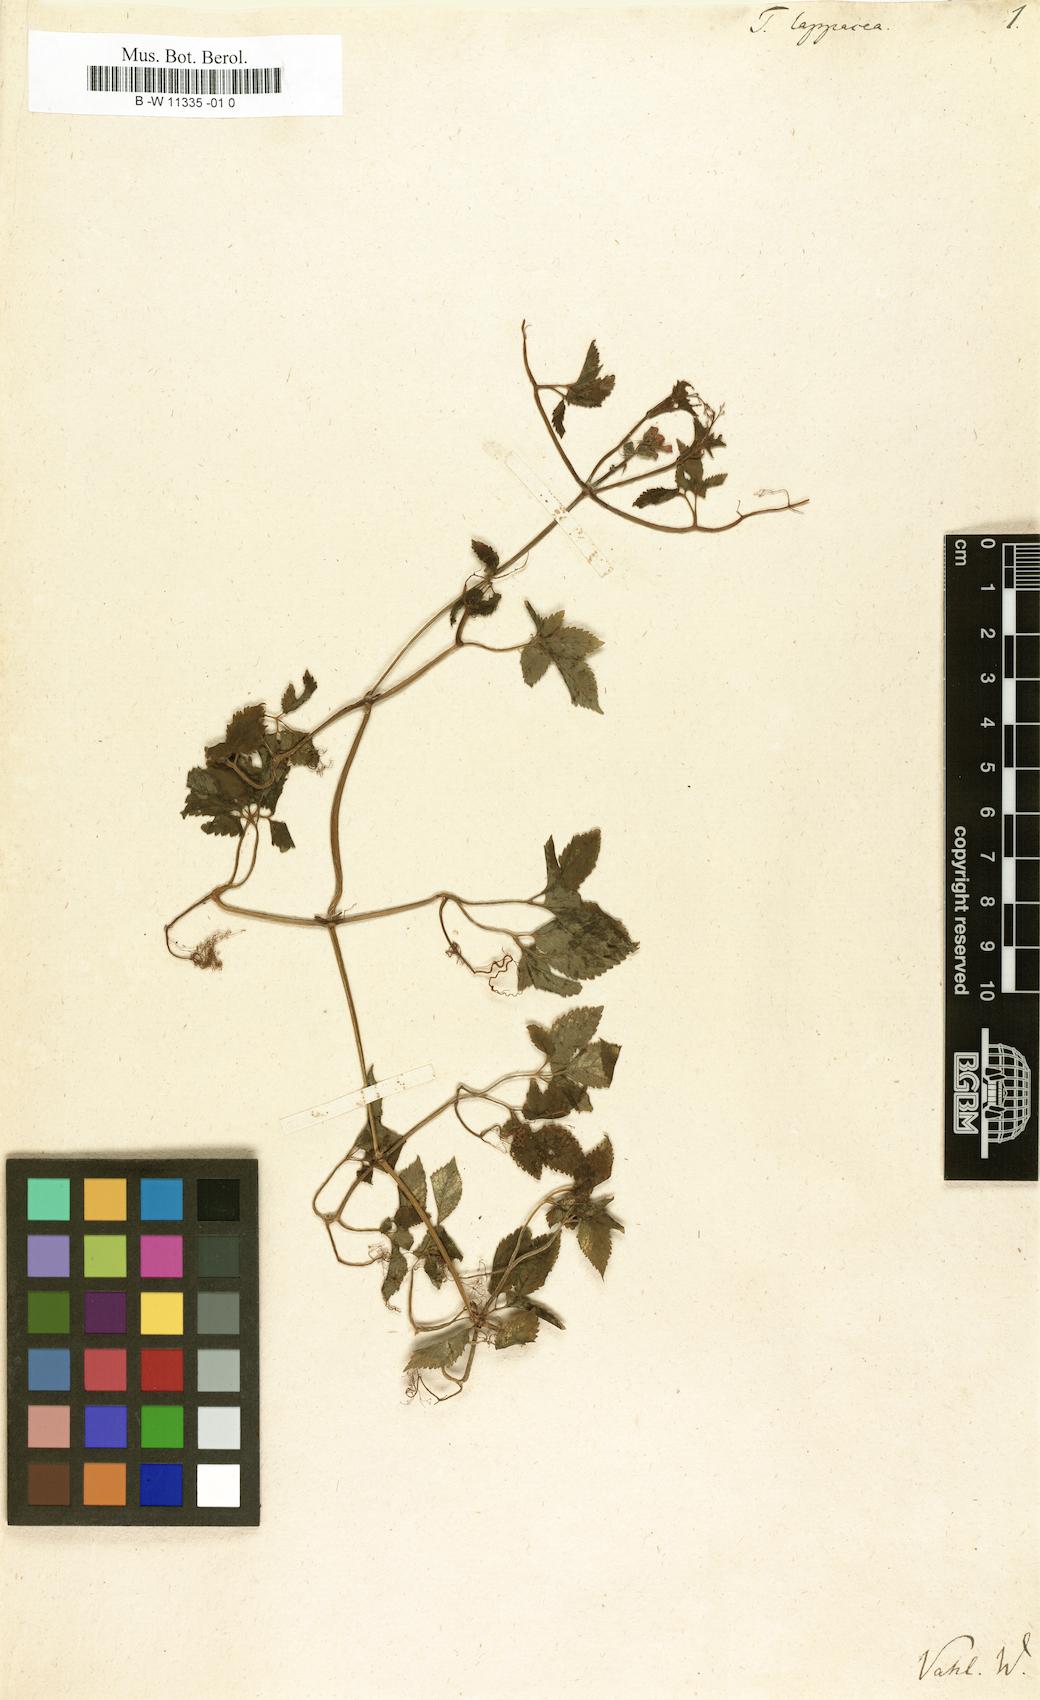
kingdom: Plantae
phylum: Tracheophyta
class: Magnoliopsida
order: Lamiales
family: Bignoniaceae
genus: Tourrettia
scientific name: Tourrettia lappacea
